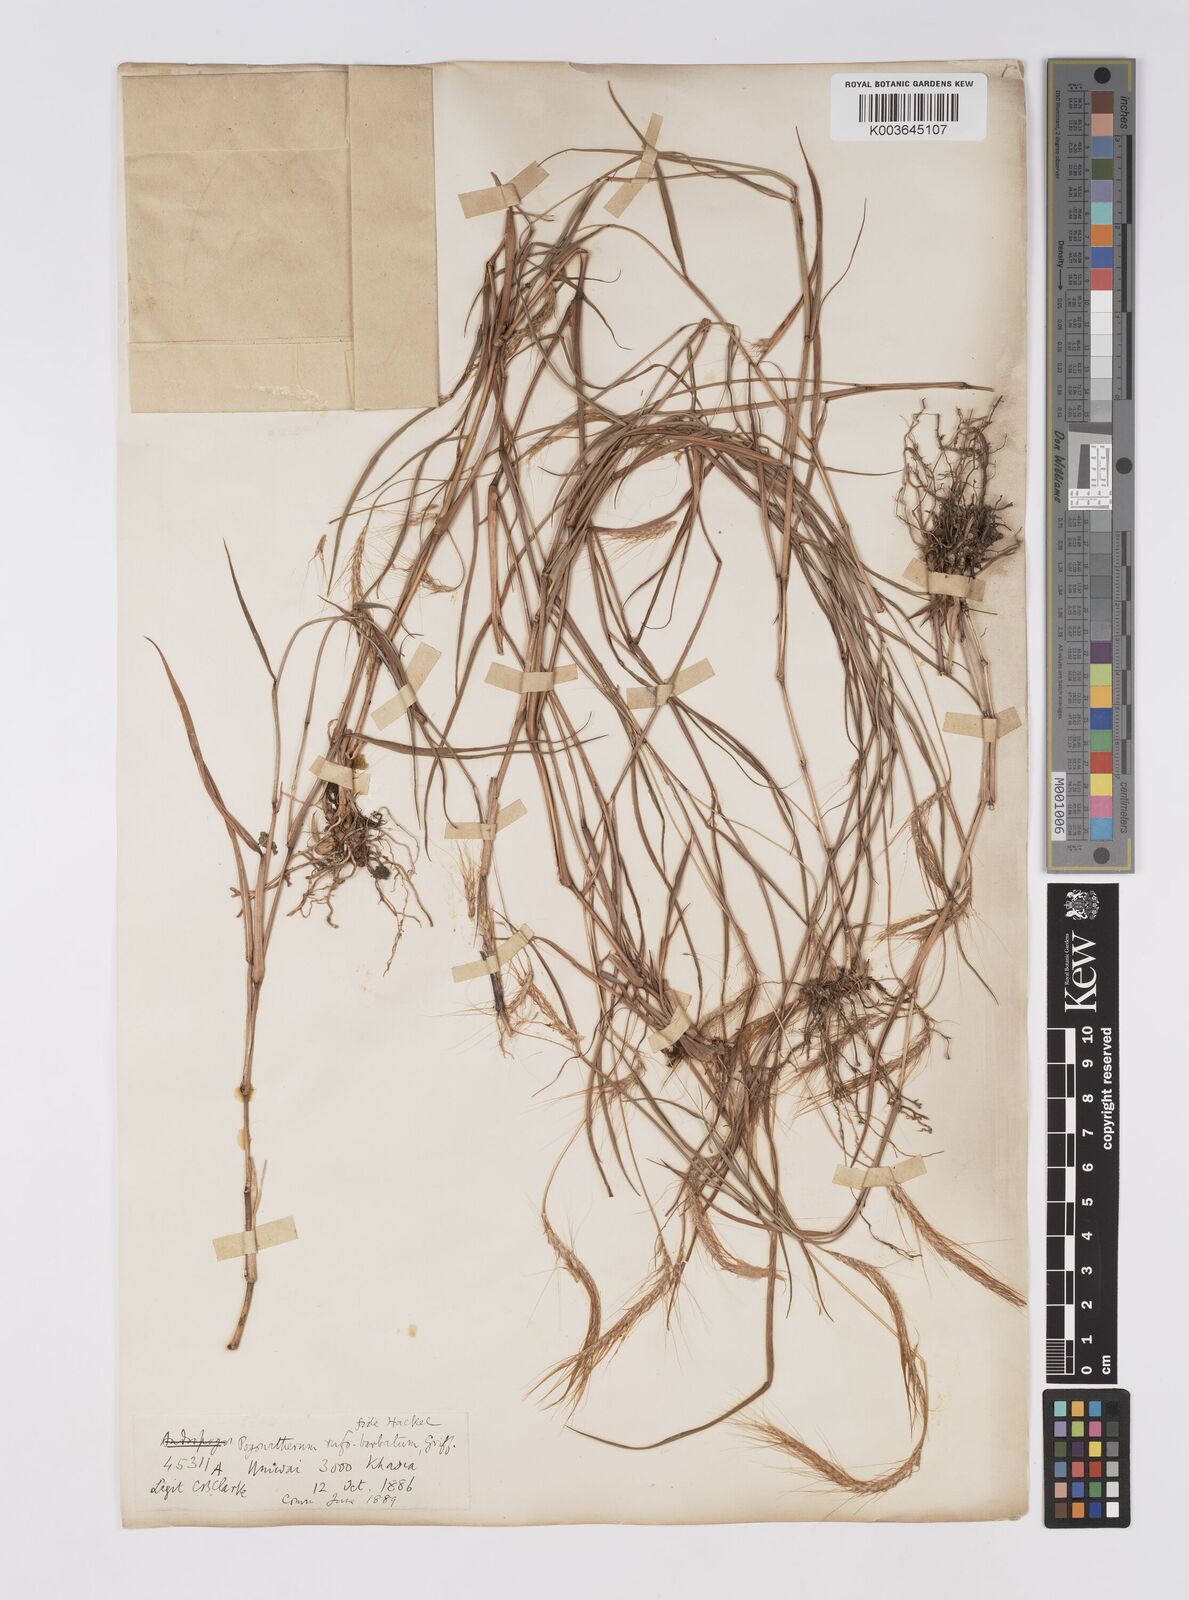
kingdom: Plantae
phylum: Tracheophyta
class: Liliopsida
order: Poales
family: Poaceae
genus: Pogonatherum
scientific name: Pogonatherum rufobarbatum
